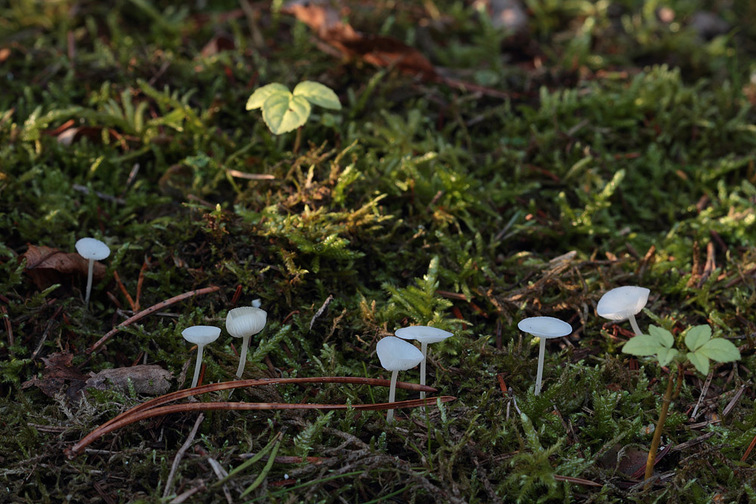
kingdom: Fungi
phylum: Basidiomycota
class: Agaricomycetes
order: Agaricales
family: Mycenaceae
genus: Hemimycena
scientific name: Hemimycena cucullata
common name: tætbladet huesvamp
